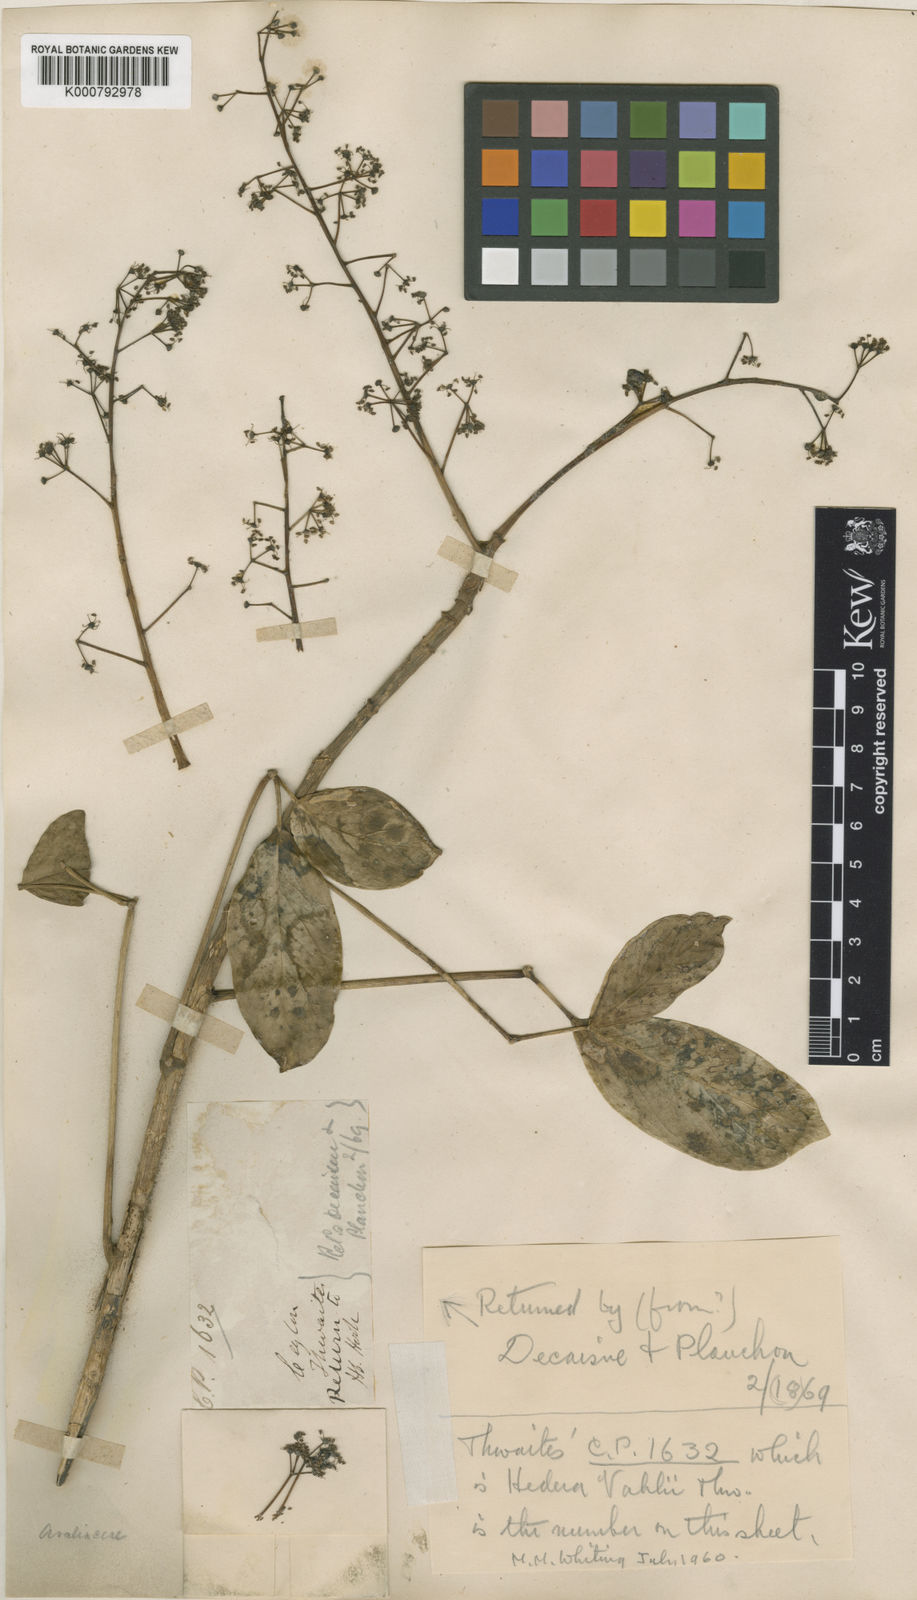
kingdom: Plantae
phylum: Tracheophyta
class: Magnoliopsida
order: Apiales
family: Araliaceae
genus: Heptapleurum
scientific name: Heptapleurum stellatum
